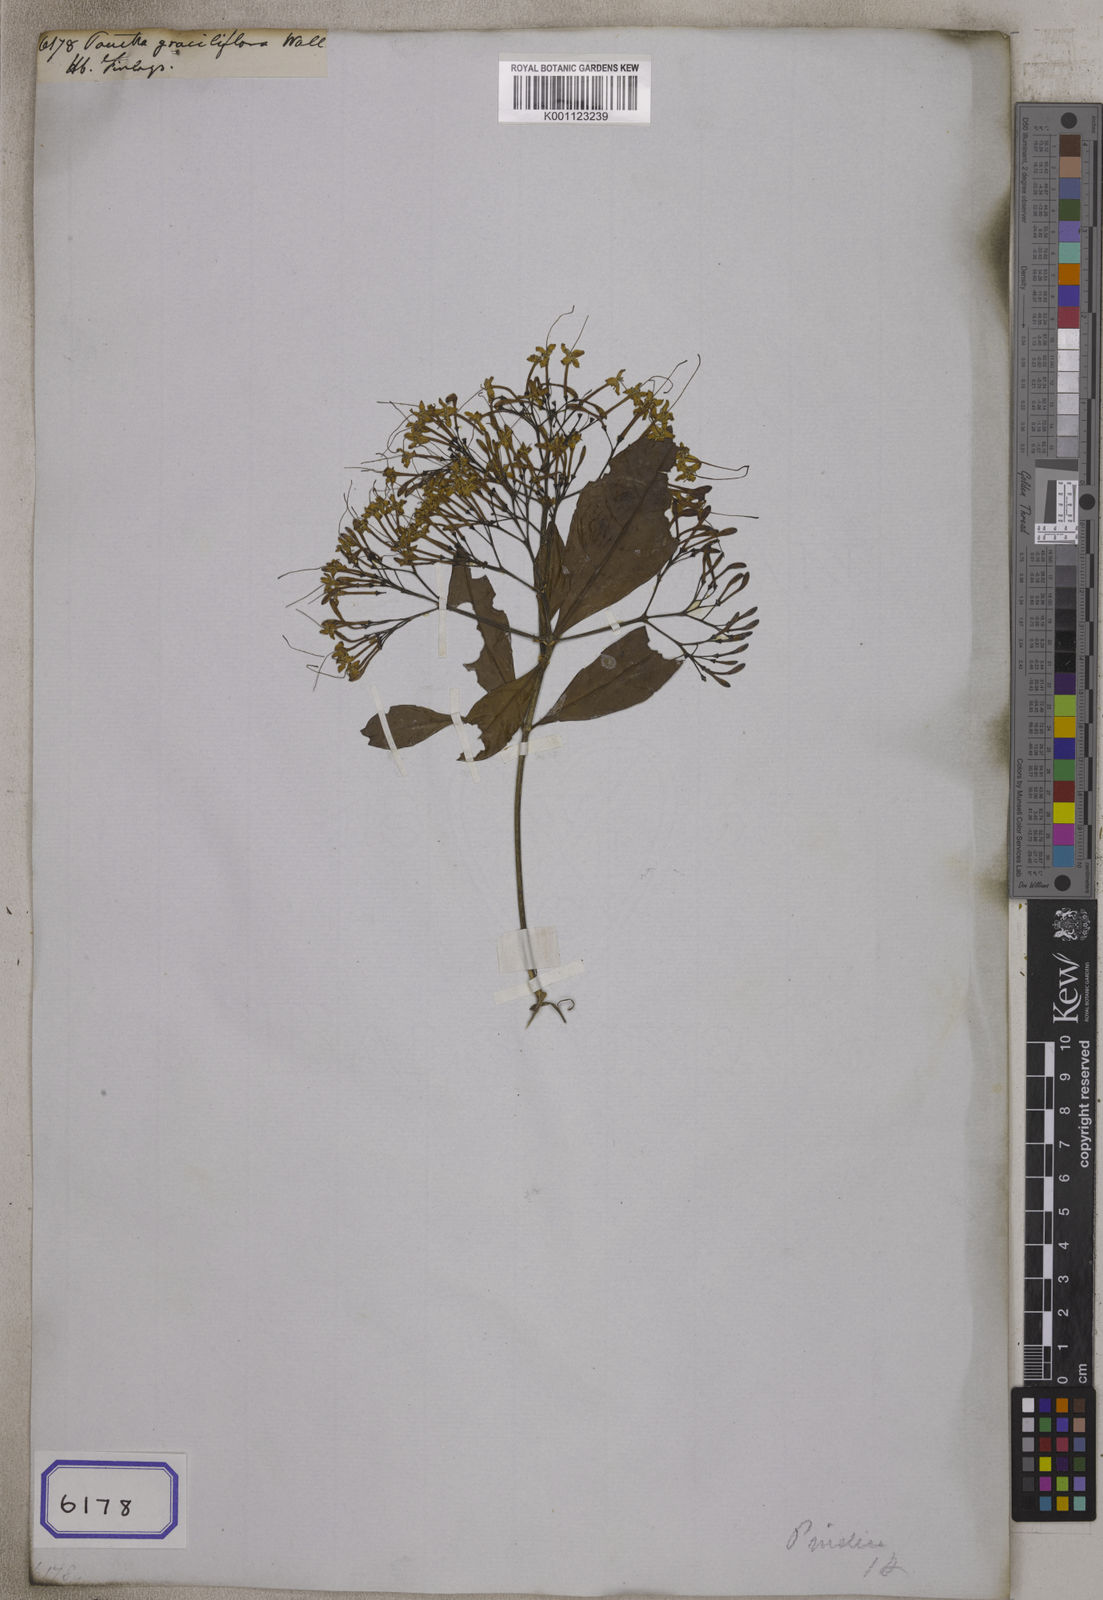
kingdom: Plantae
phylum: Tracheophyta
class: Magnoliopsida
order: Gentianales
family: Rubiaceae
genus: Pavetta
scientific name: Pavetta
